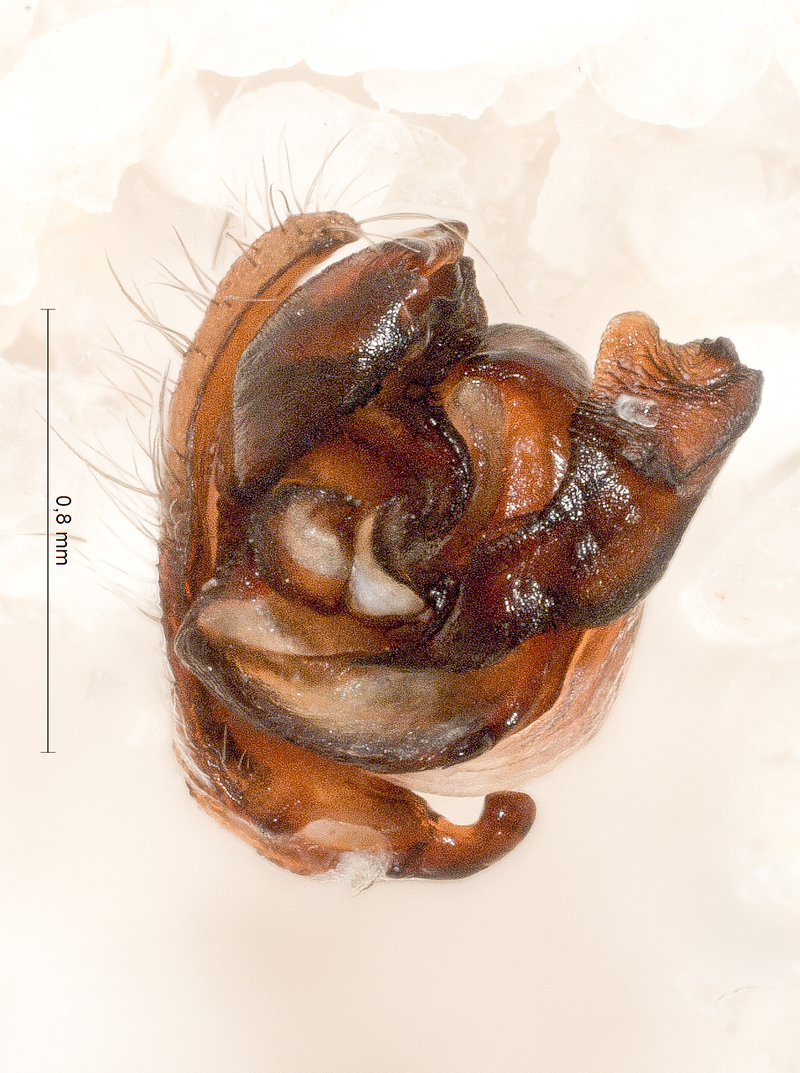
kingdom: Animalia
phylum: Arthropoda
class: Arachnida
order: Araneae
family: Araneidae
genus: Gibbaranea
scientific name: Gibbaranea bituberculata
